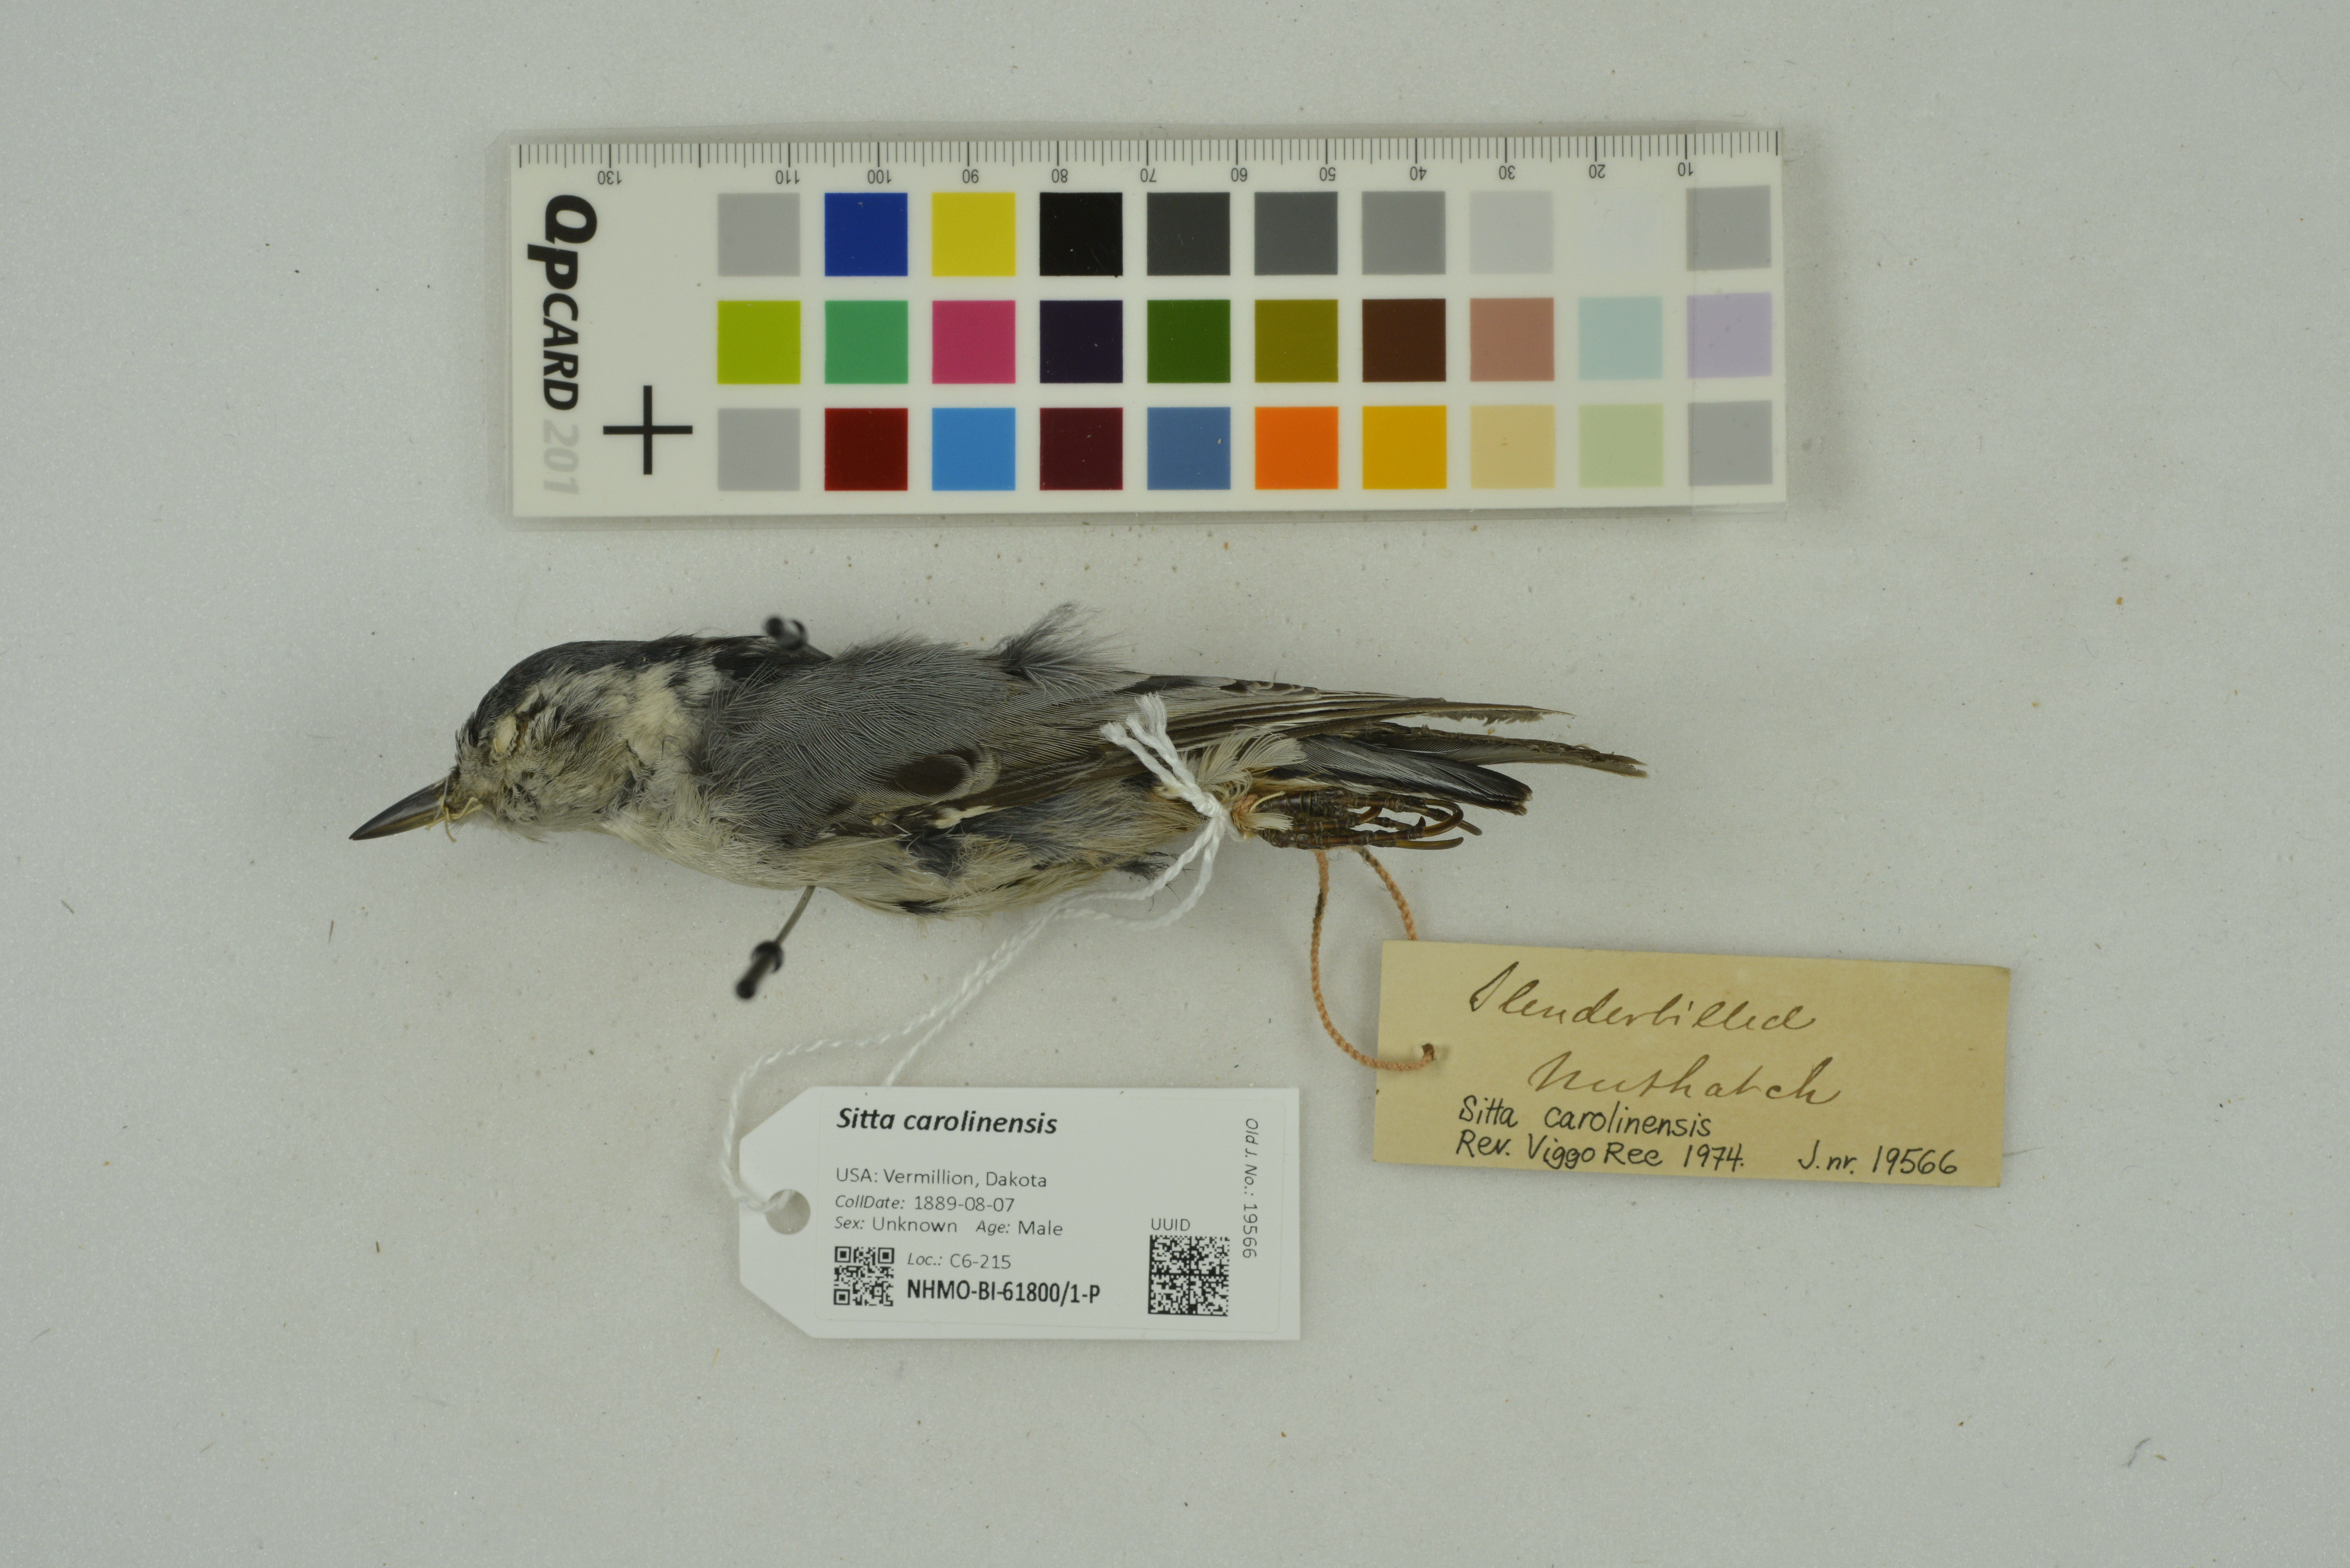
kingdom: Animalia
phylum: Chordata
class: Aves
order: Passeriformes
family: Sittidae
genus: Sitta
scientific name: Sitta carolinensis
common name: White-breasted nuthatch
